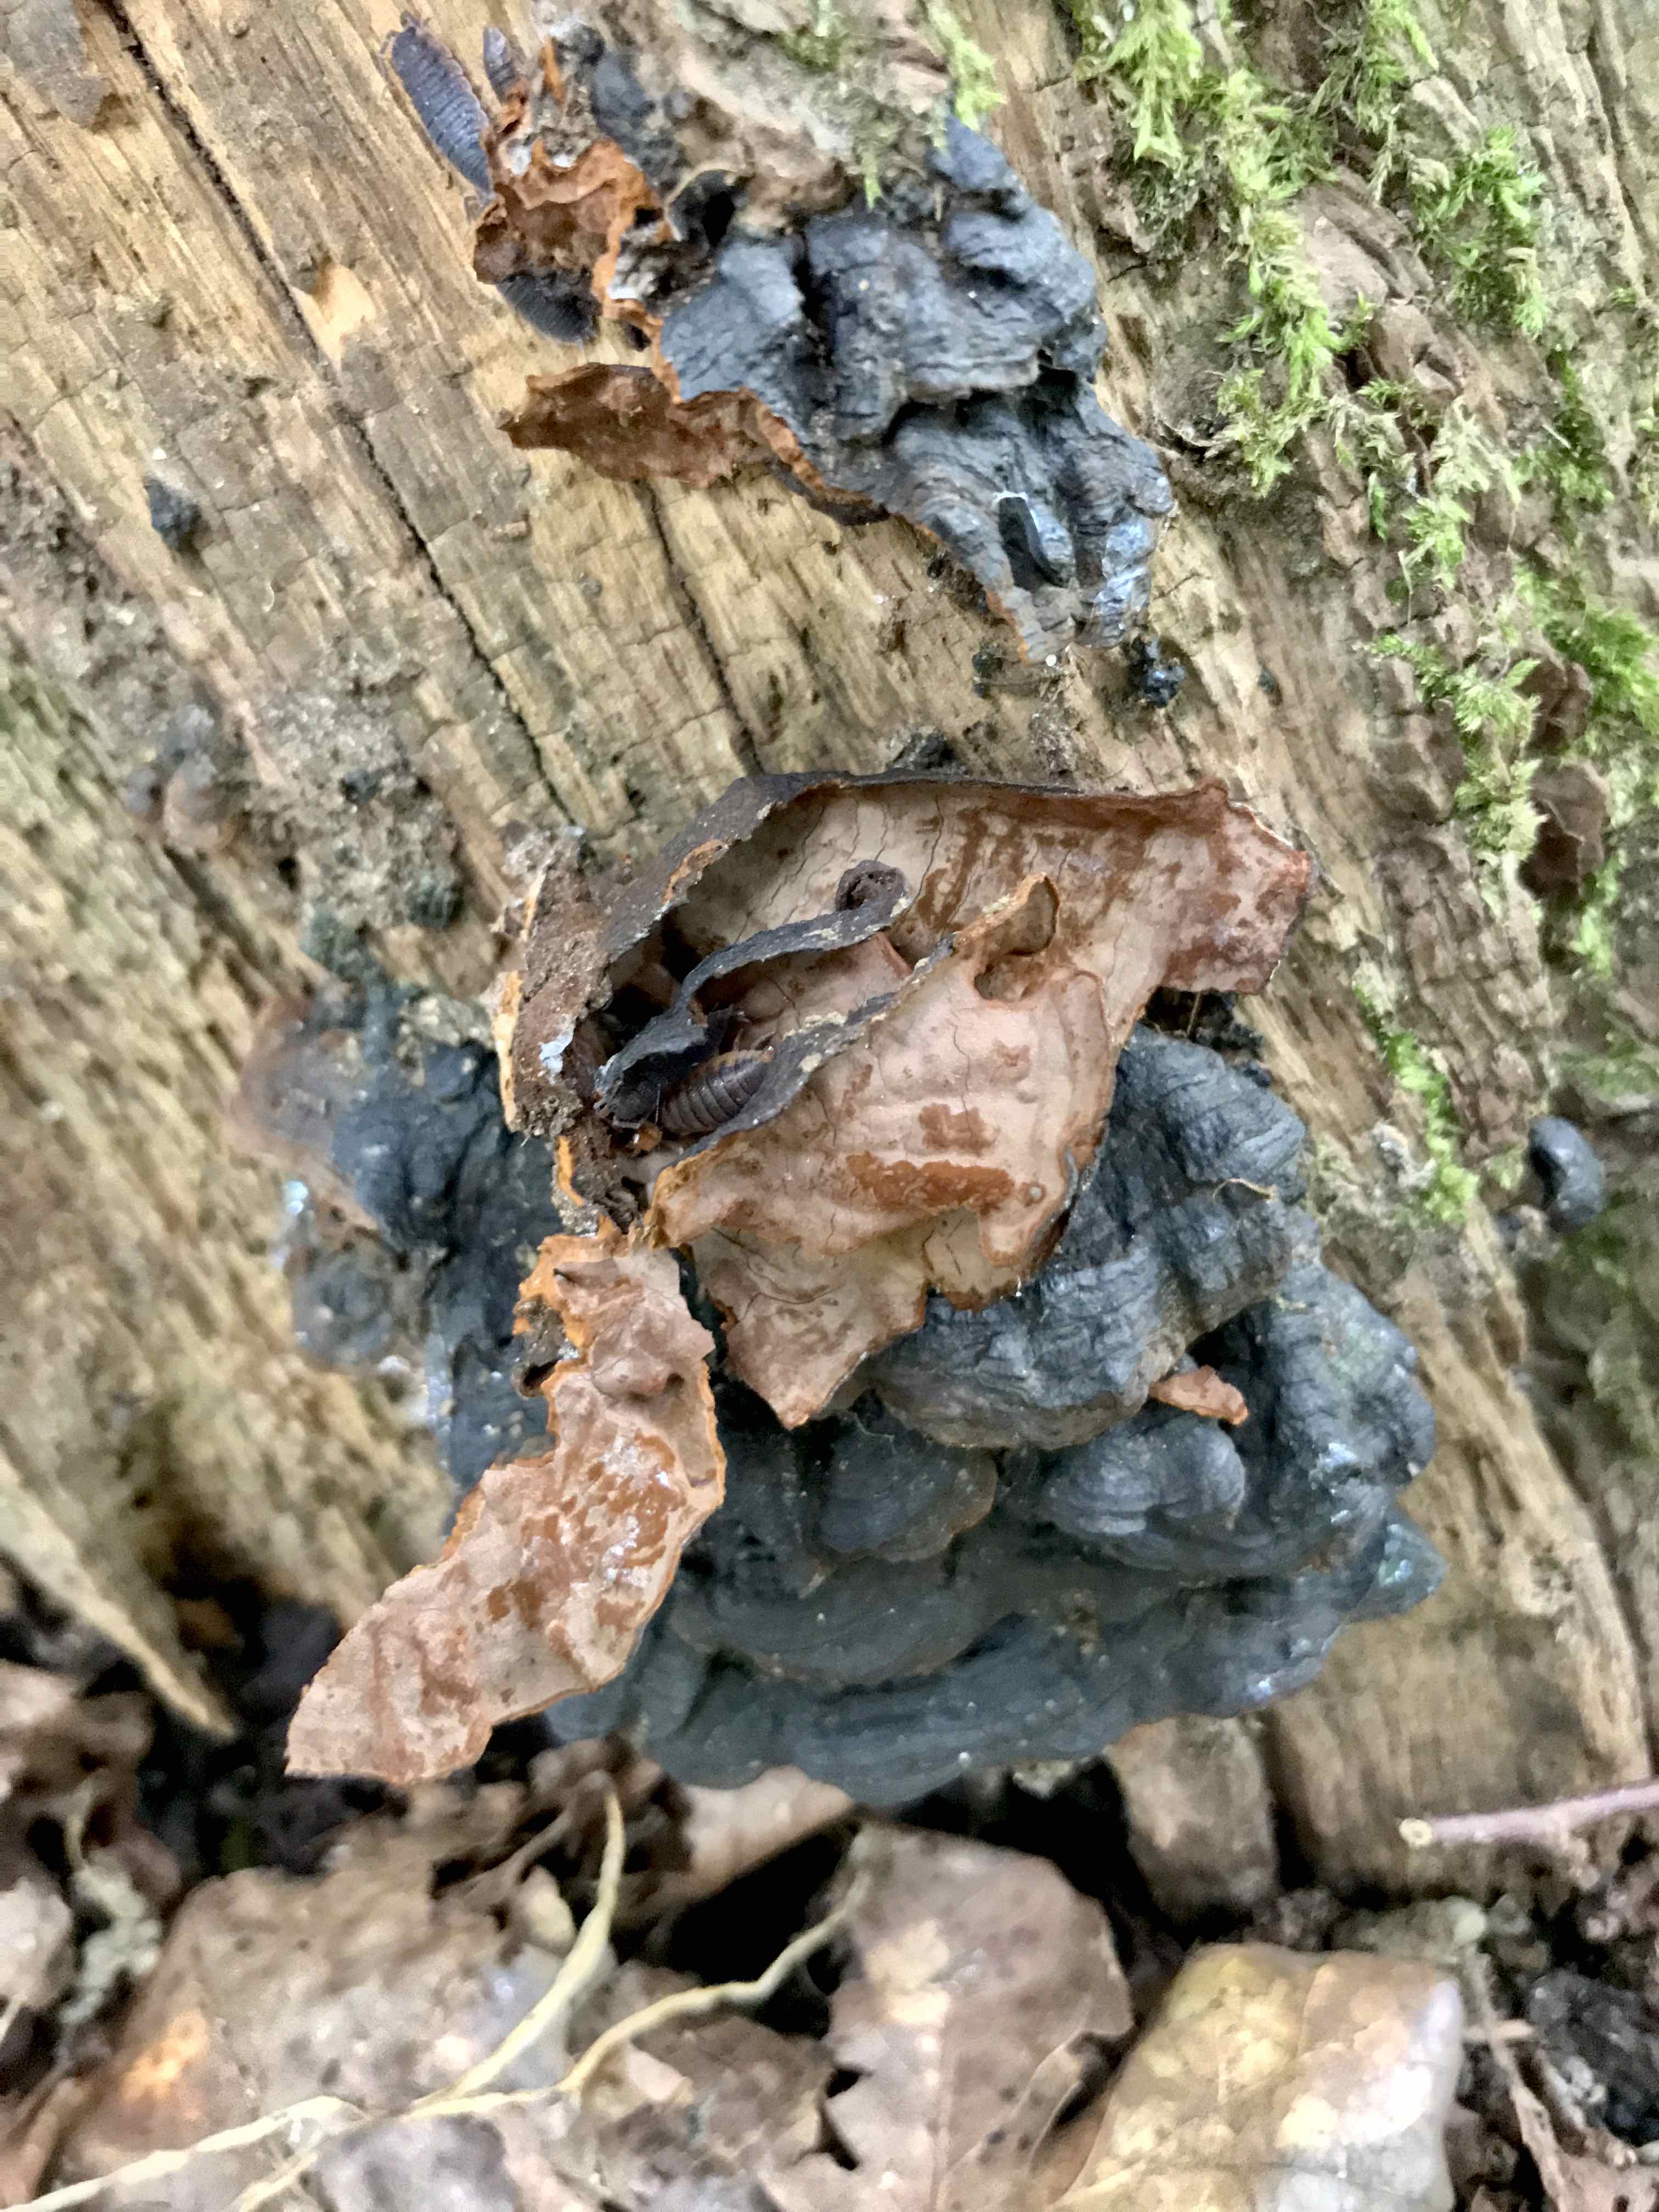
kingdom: Fungi
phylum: Basidiomycota
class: Agaricomycetes
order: Hymenochaetales
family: Hymenochaetaceae
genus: Hymenochaete
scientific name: Hymenochaete rubiginosa
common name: stiv ruslædersvamp
